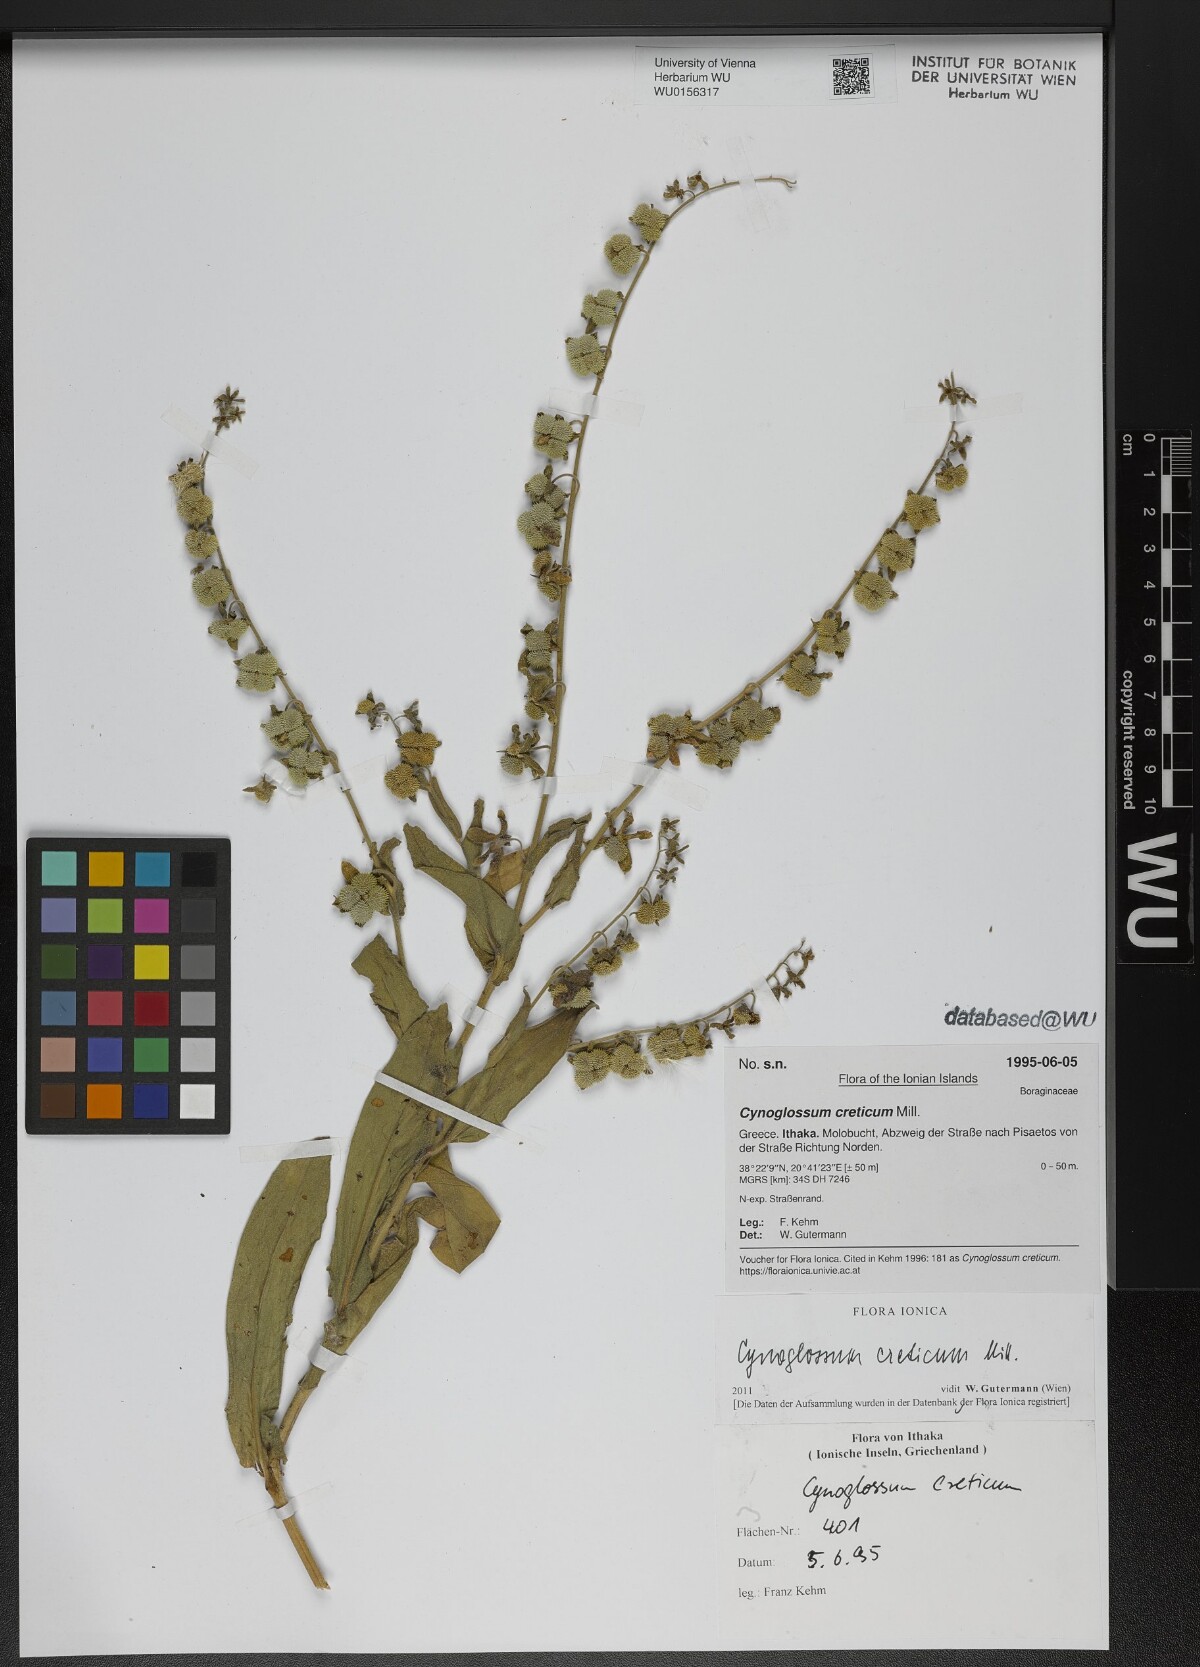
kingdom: Plantae
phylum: Tracheophyta
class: Magnoliopsida
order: Boraginales
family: Boraginaceae
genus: Cynoglossum
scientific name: Cynoglossum creticum
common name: Blue hound's tongue
